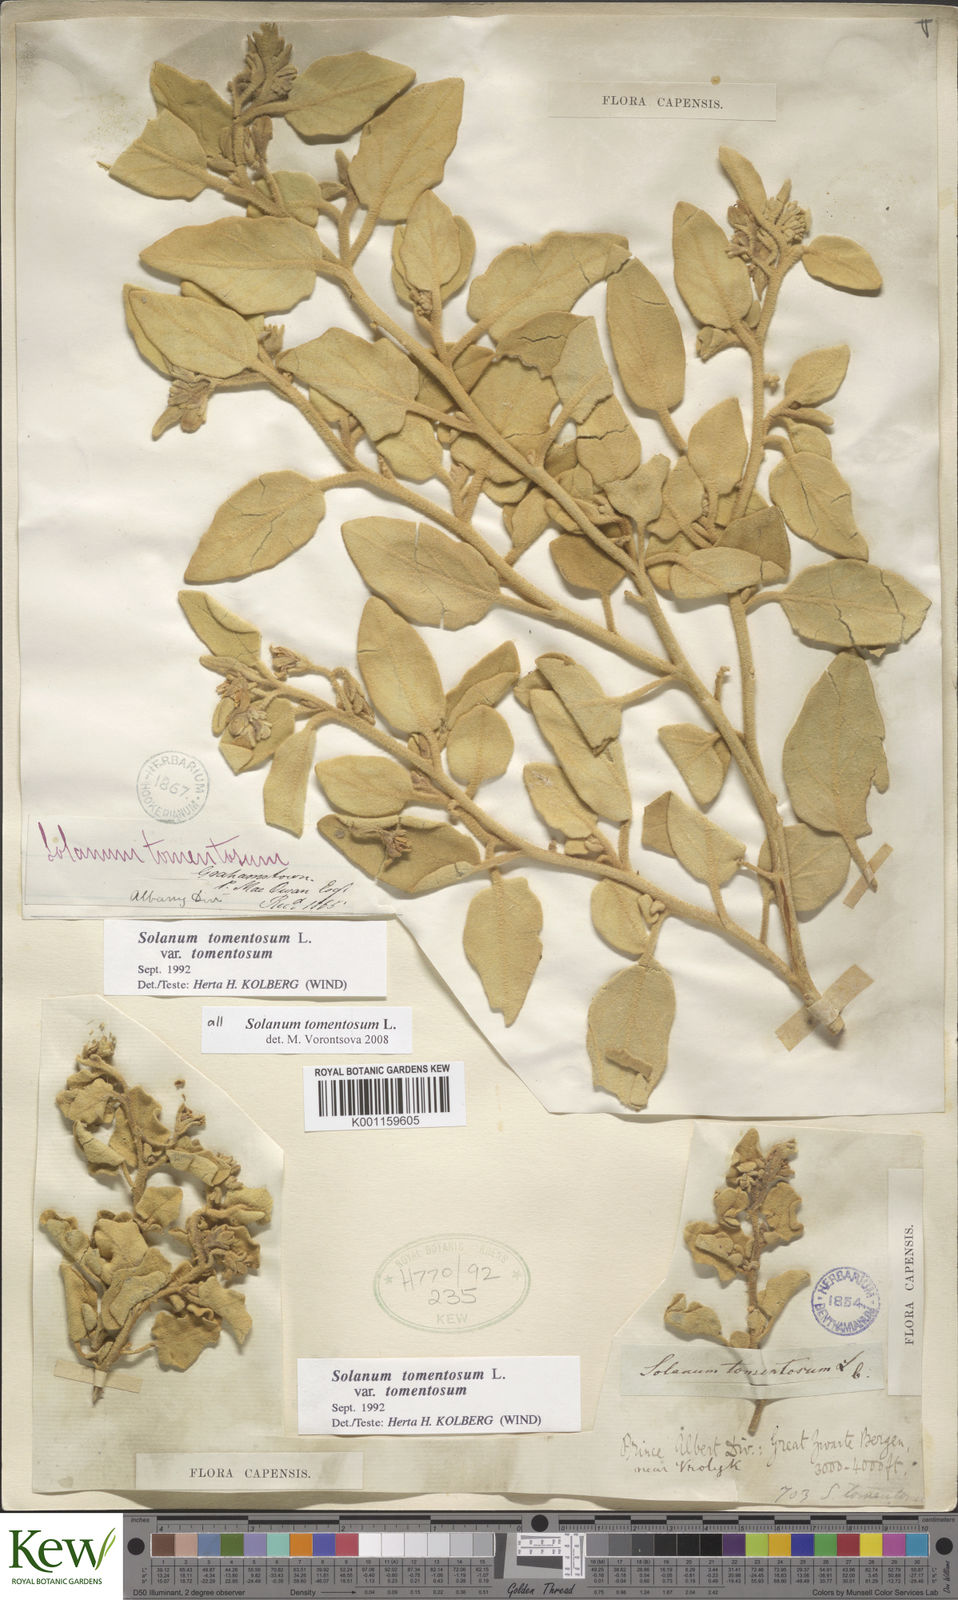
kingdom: Plantae
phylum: Tracheophyta
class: Magnoliopsida
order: Solanales
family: Solanaceae
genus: Solanum
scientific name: Solanum tomentosum
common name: Wild aubergine
